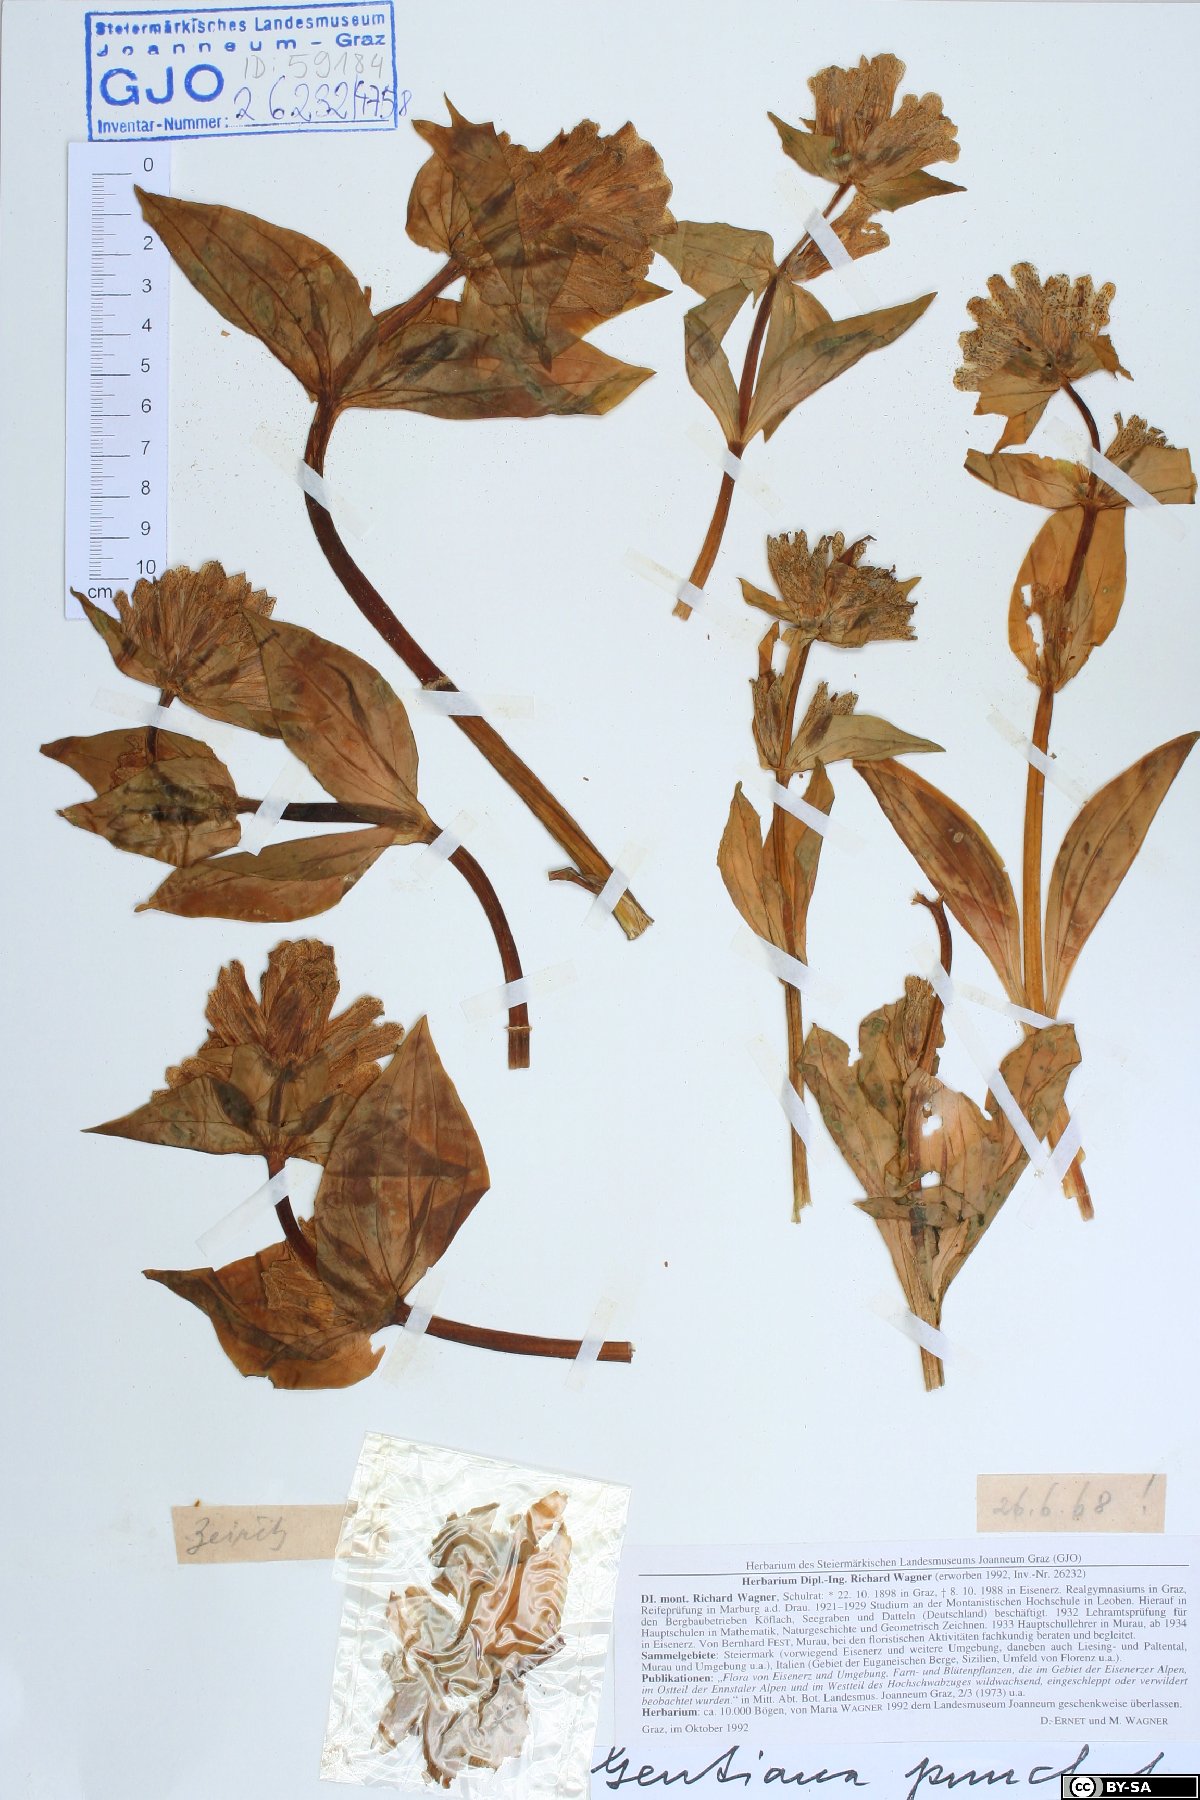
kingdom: Plantae
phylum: Tracheophyta
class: Magnoliopsida
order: Gentianales
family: Gentianaceae
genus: Gentiana
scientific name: Gentiana punctata
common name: Spotted gentian
